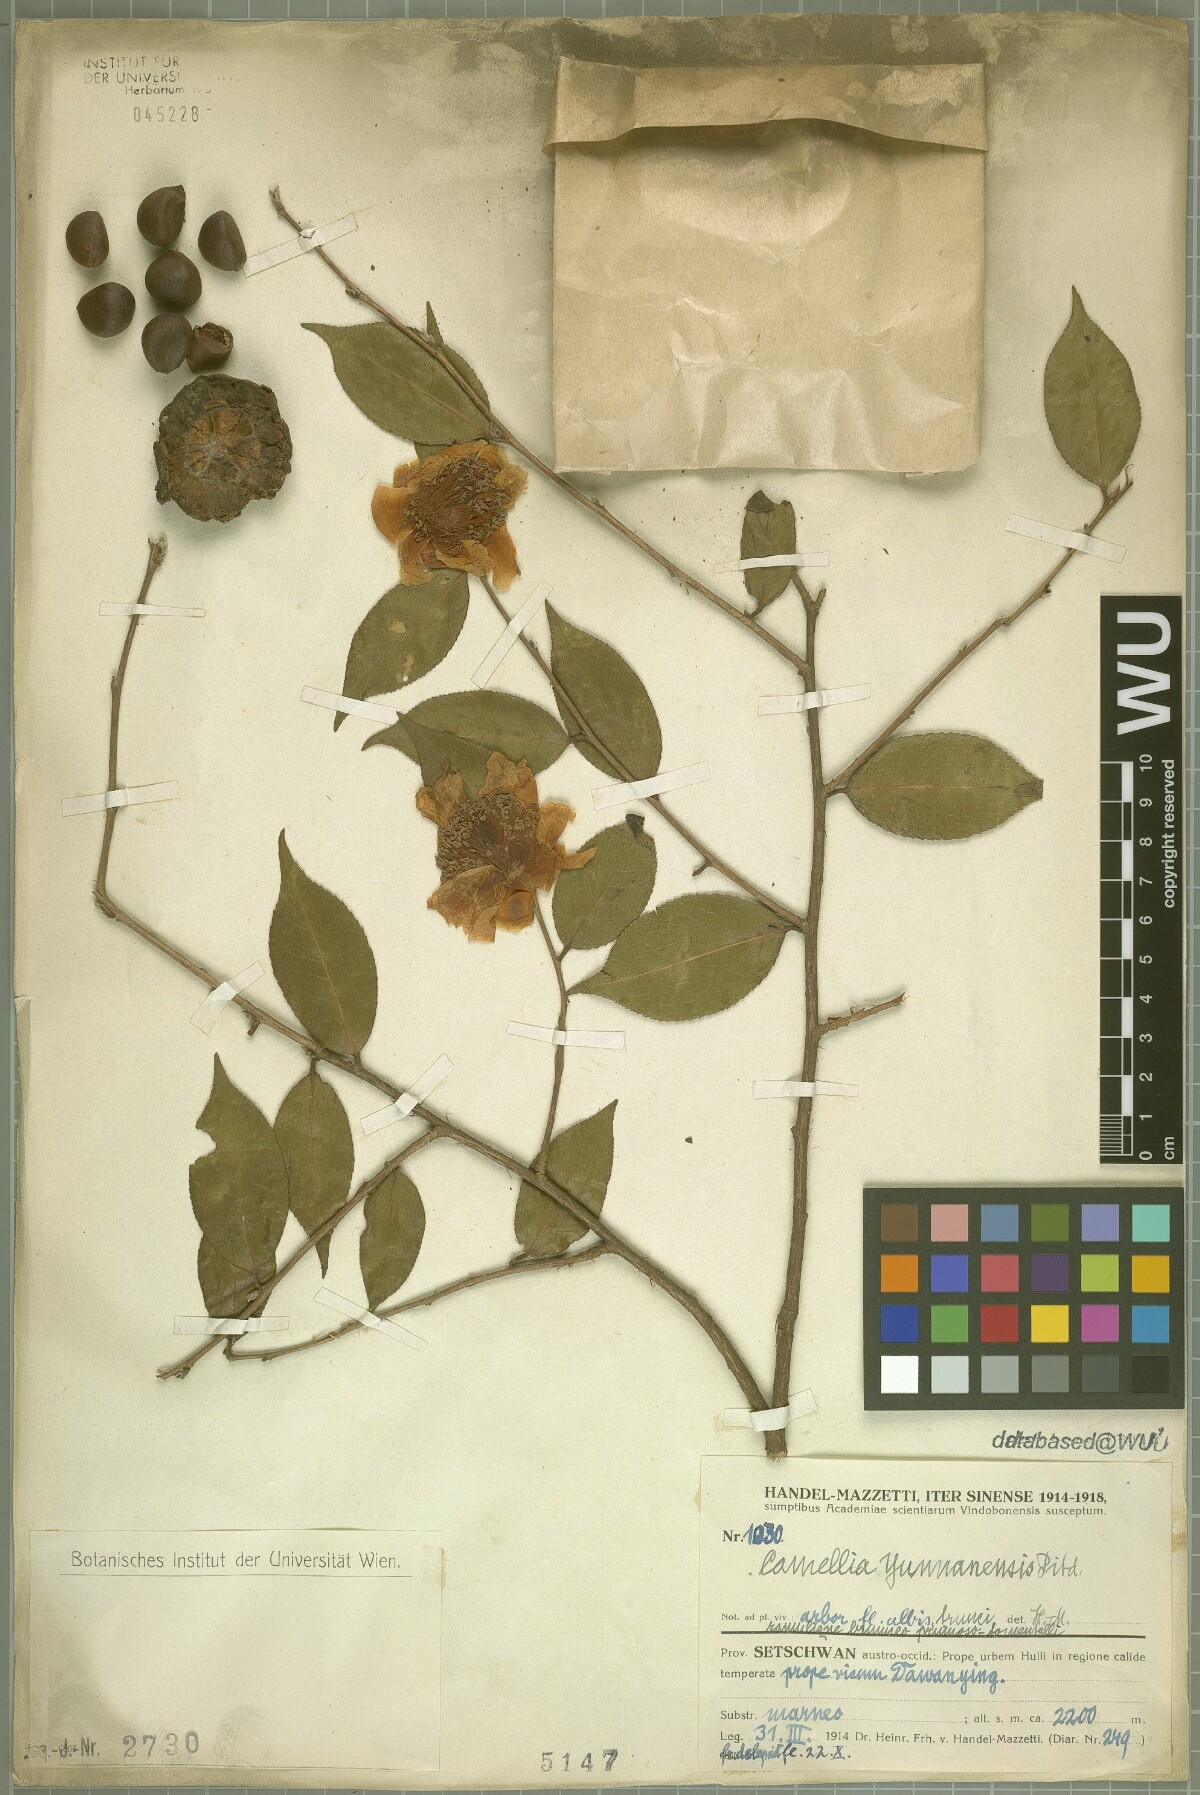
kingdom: Plantae
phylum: Tracheophyta
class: Magnoliopsida
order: Ericales
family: Theaceae
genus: Camellia
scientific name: Camellia yunnanensis
